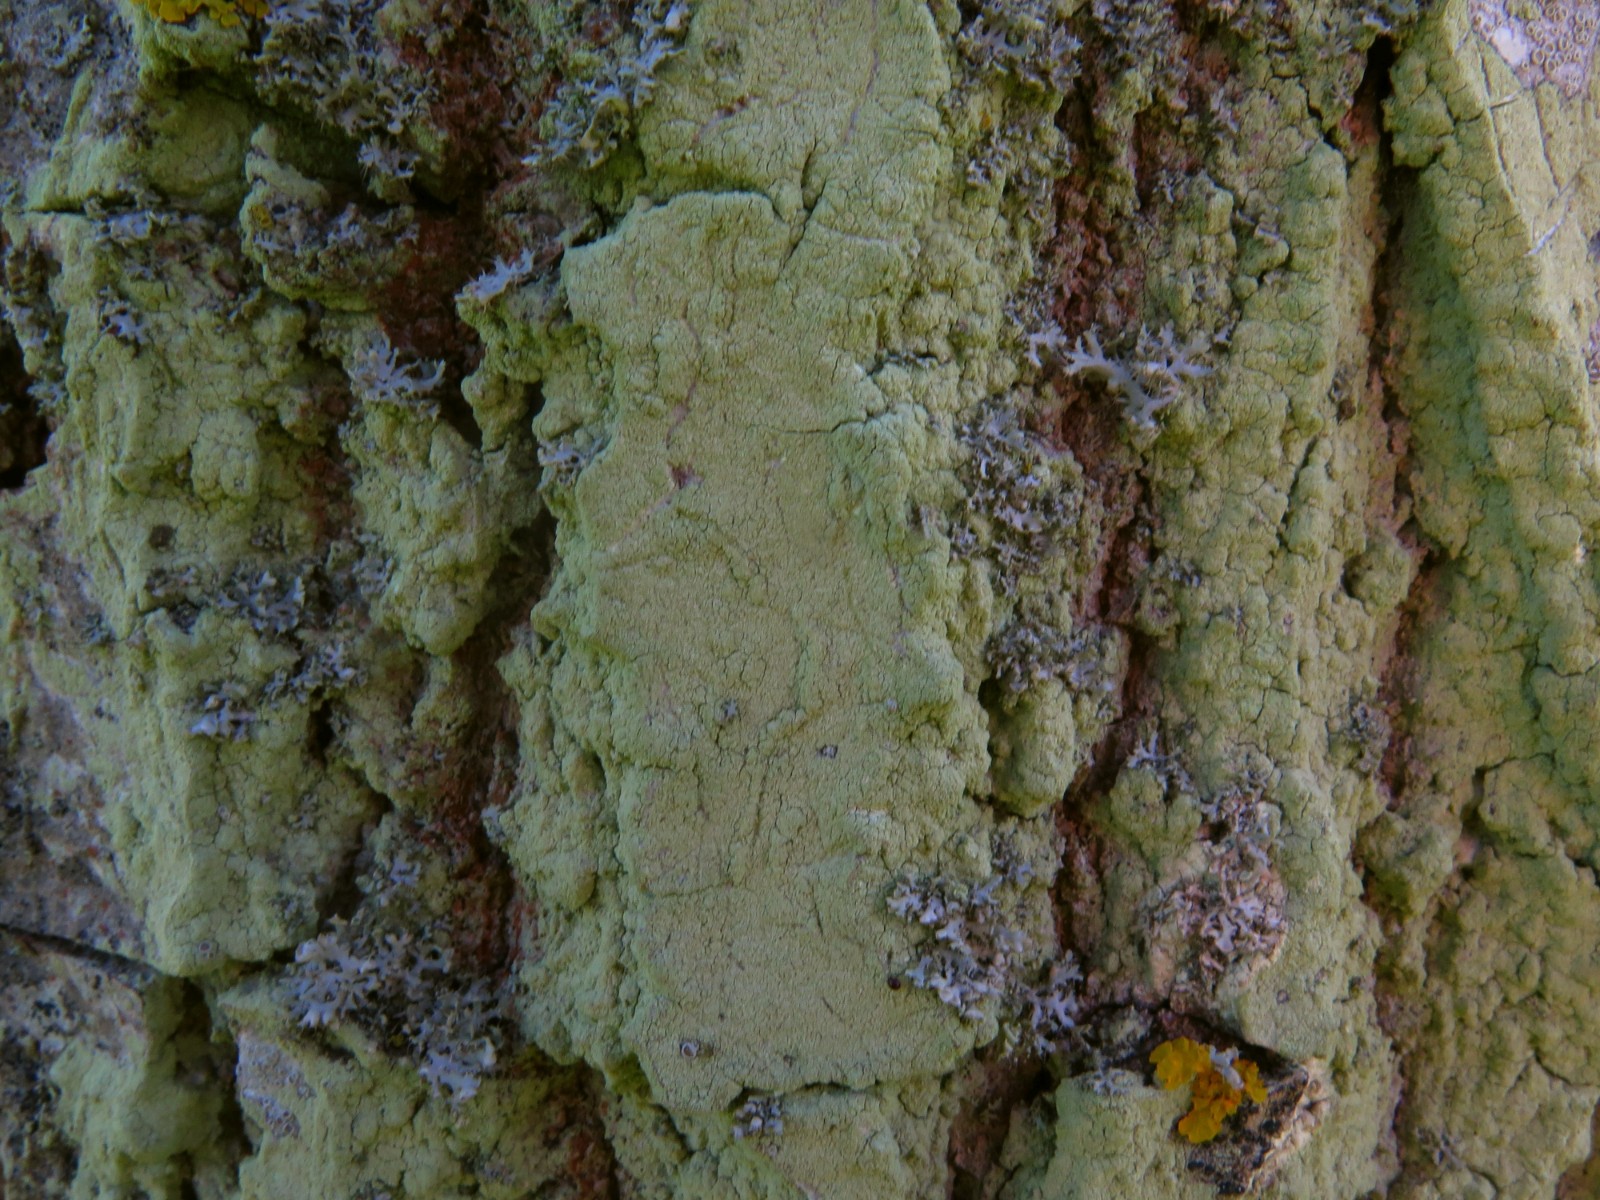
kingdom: Fungi
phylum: Ascomycota
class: Lecanoromycetes
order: Lecanorales
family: Stereocaulaceae
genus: Lepraria
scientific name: Lepraria incana
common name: almindelig støvlav
